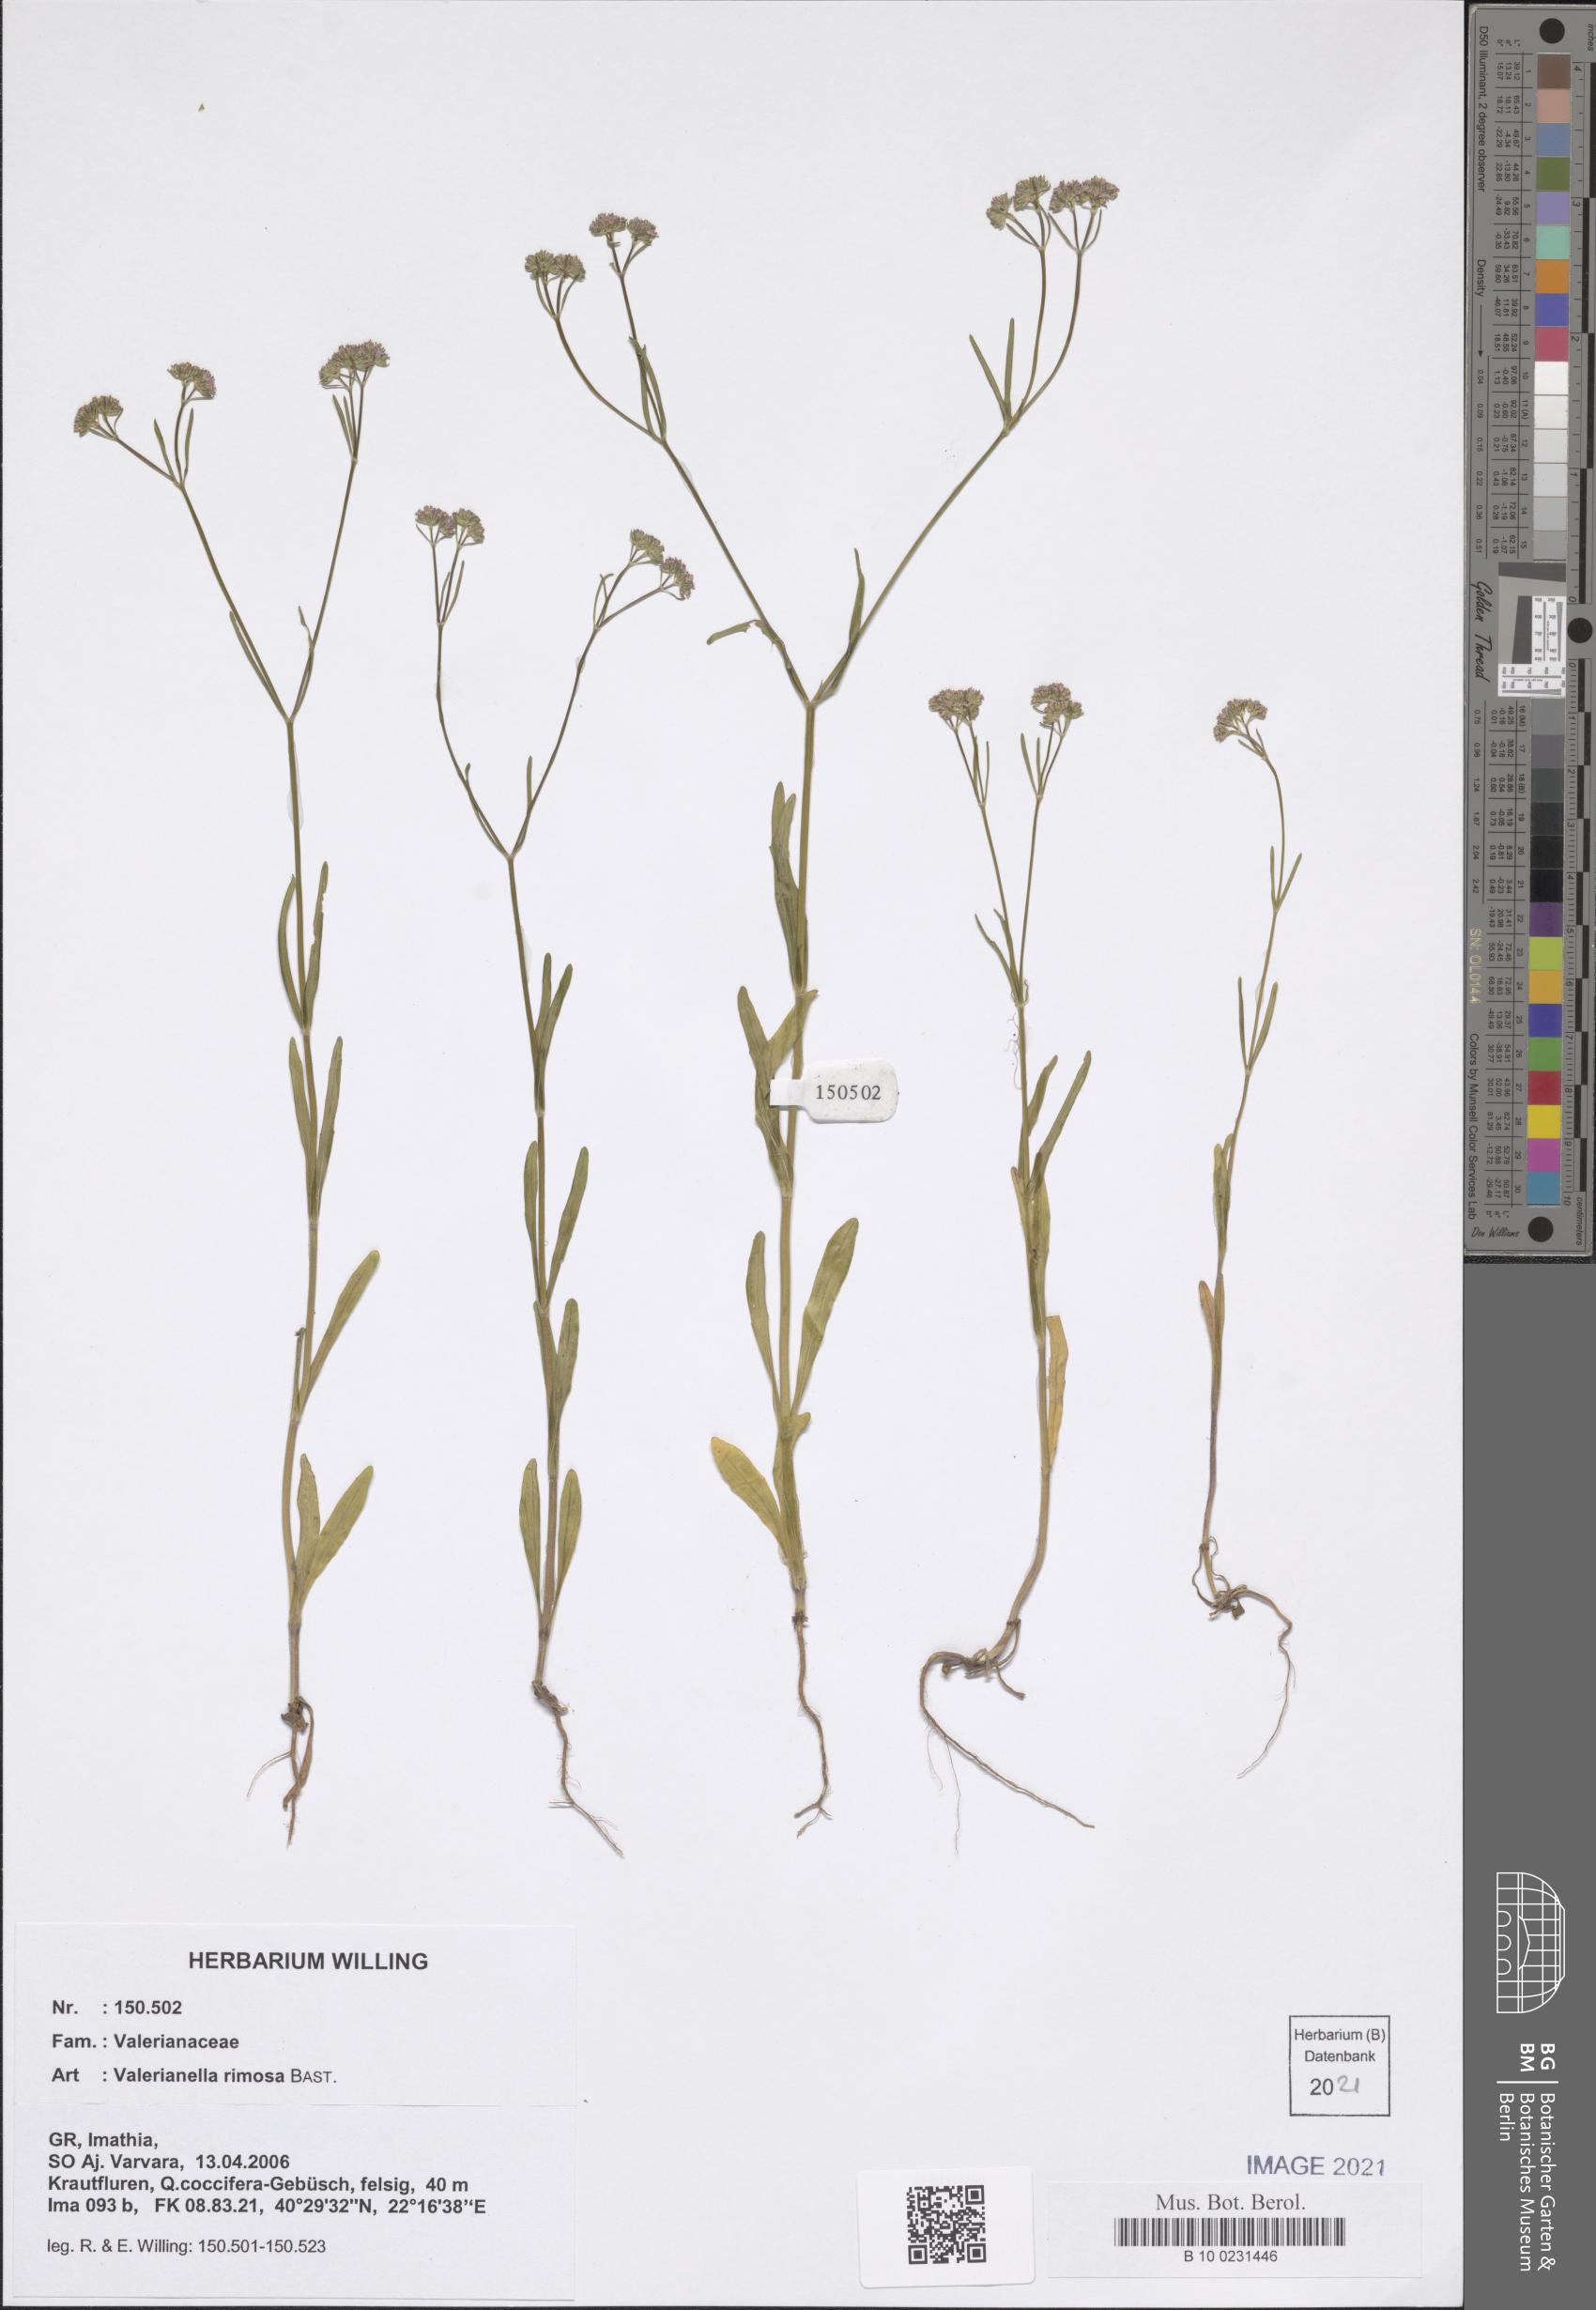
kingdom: Plantae
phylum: Tracheophyta
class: Magnoliopsida
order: Dipsacales
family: Caprifoliaceae
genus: Valerianella
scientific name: Valerianella rimosa
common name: Broad-fruited cornsalad
